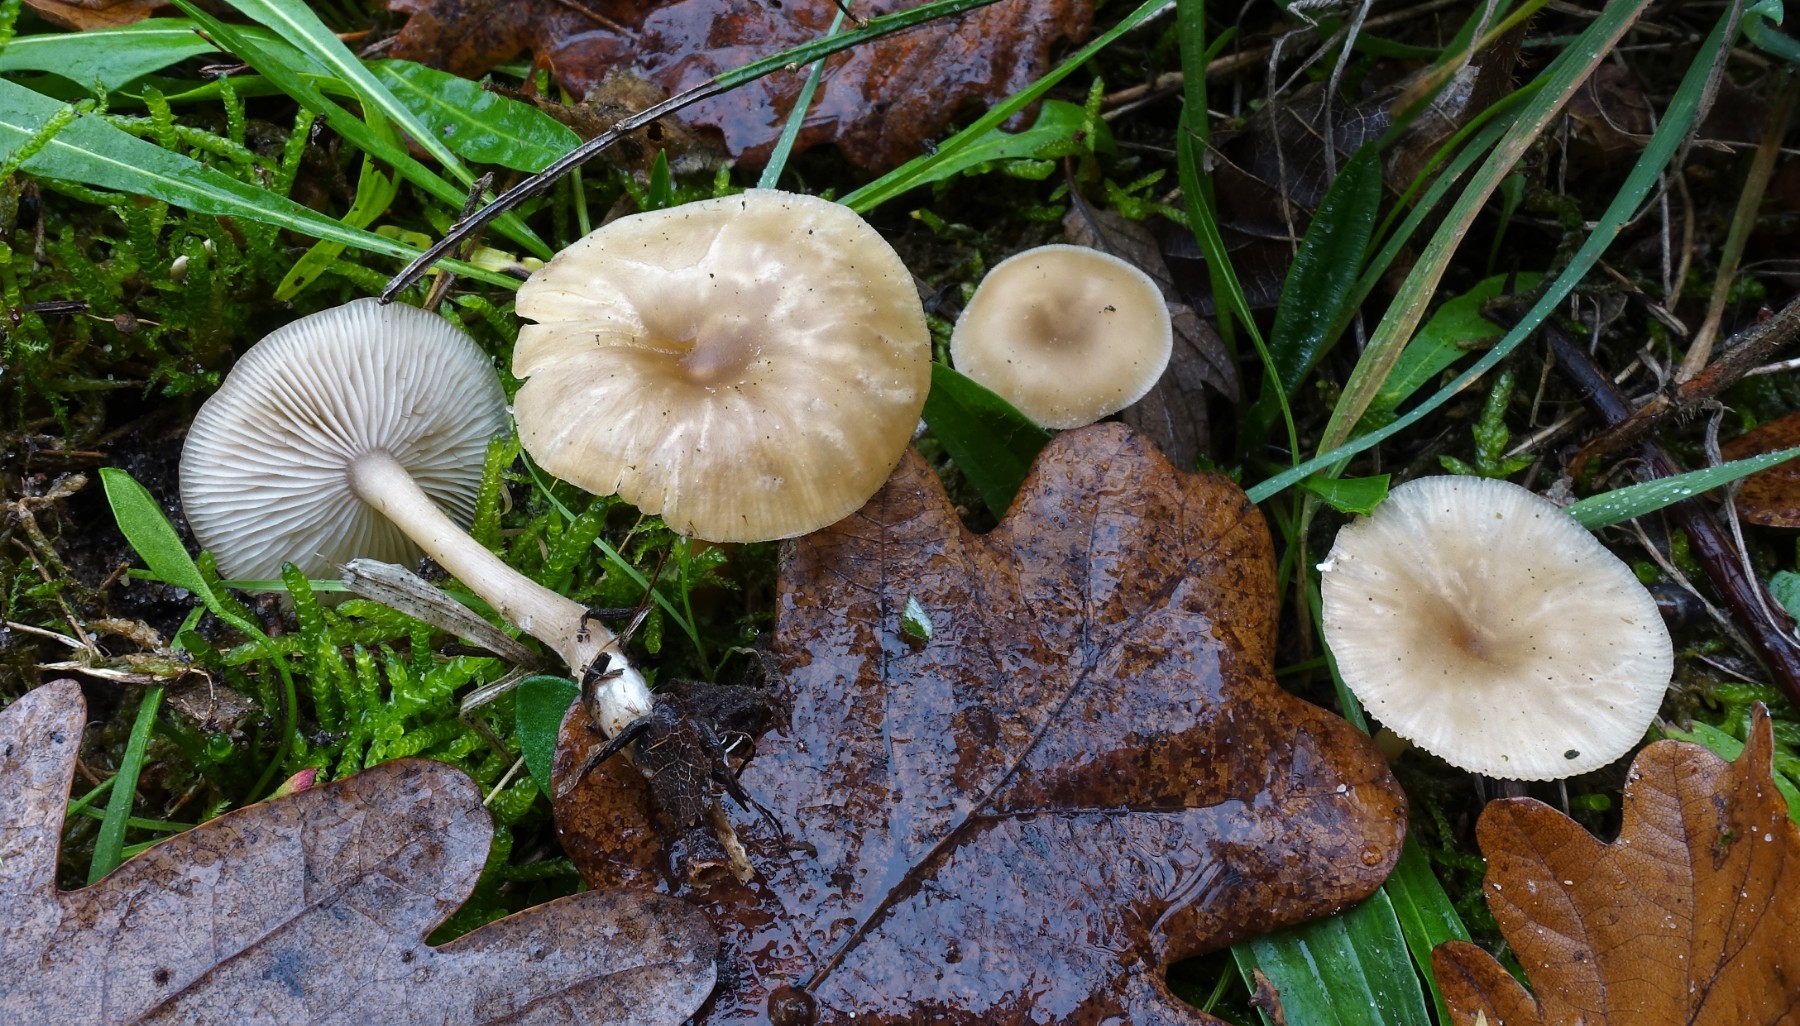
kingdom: Fungi
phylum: Basidiomycota
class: Agaricomycetes
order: Agaricales
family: Tricholomataceae
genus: Clitocybe
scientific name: Clitocybe fragrans
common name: vellugtende tragthat
